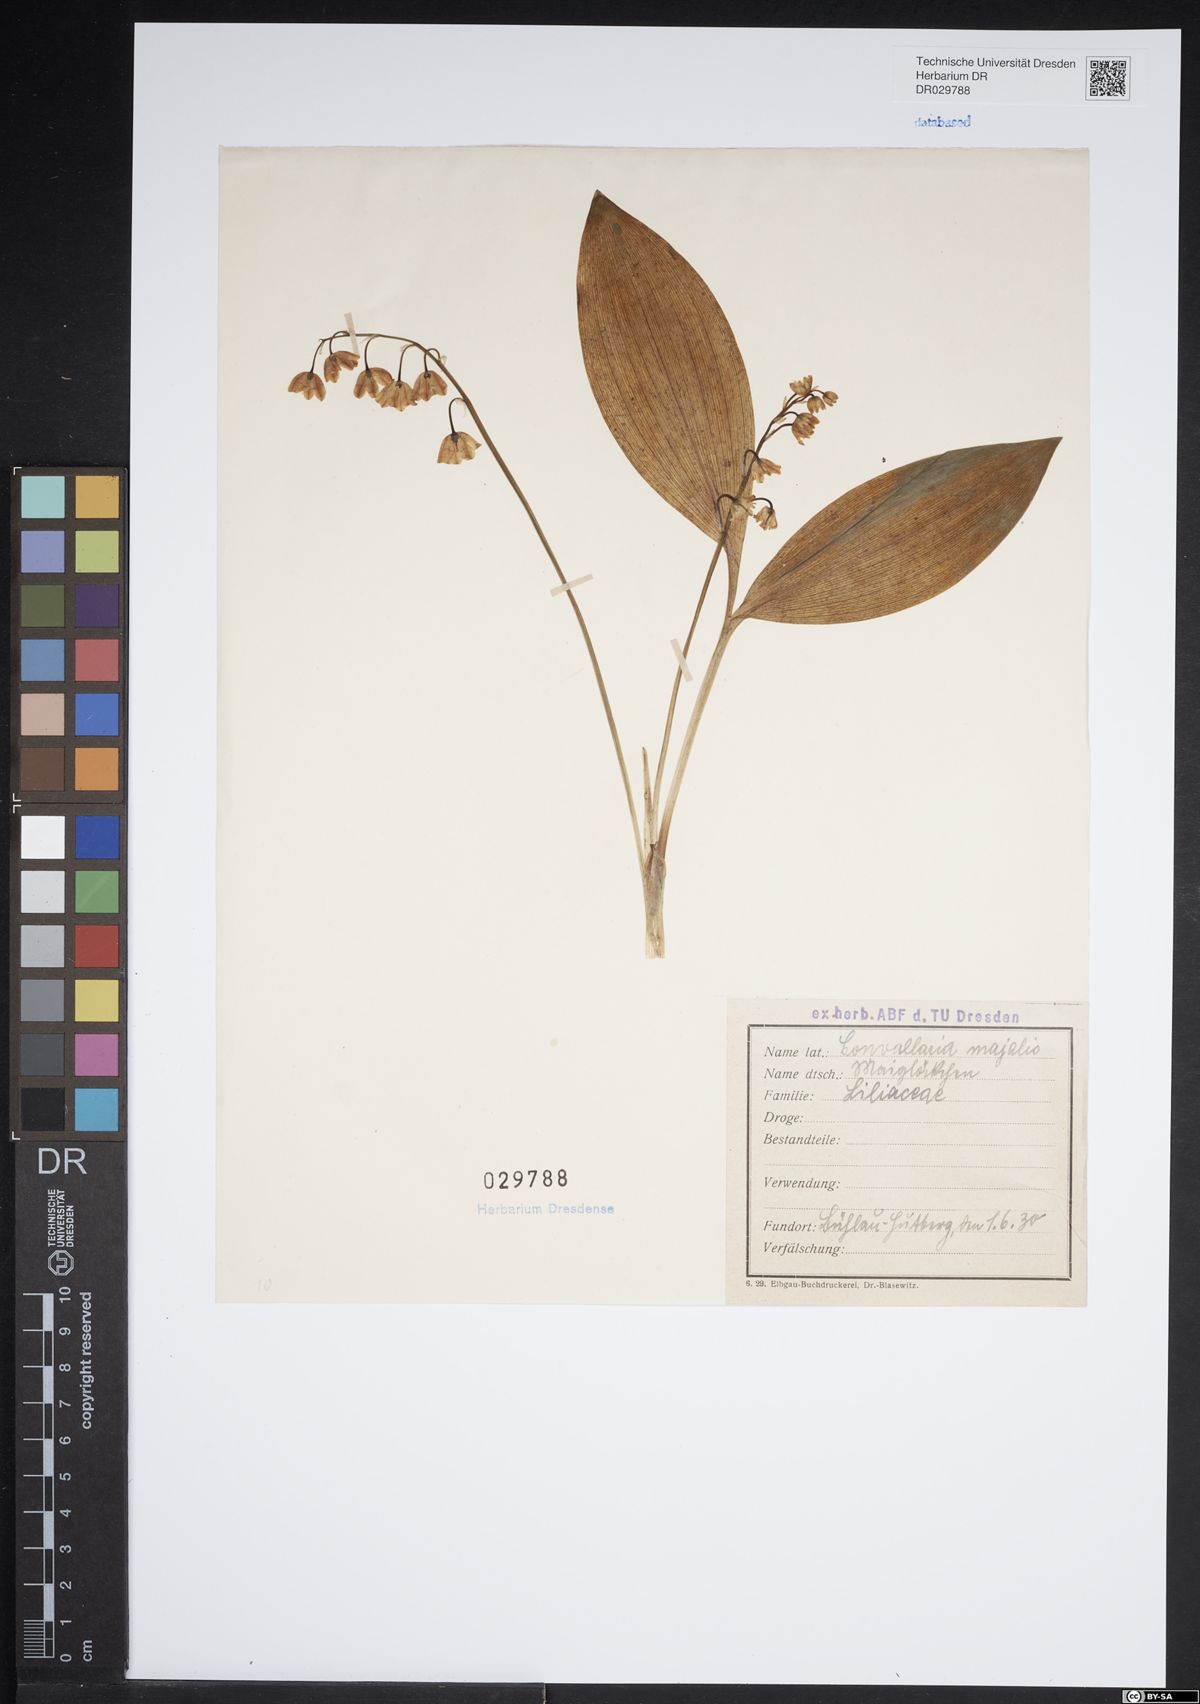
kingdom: Plantae
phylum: Tracheophyta
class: Liliopsida
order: Asparagales
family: Asparagaceae
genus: Convallaria
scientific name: Convallaria majalis
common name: Lily-of-the-valley
